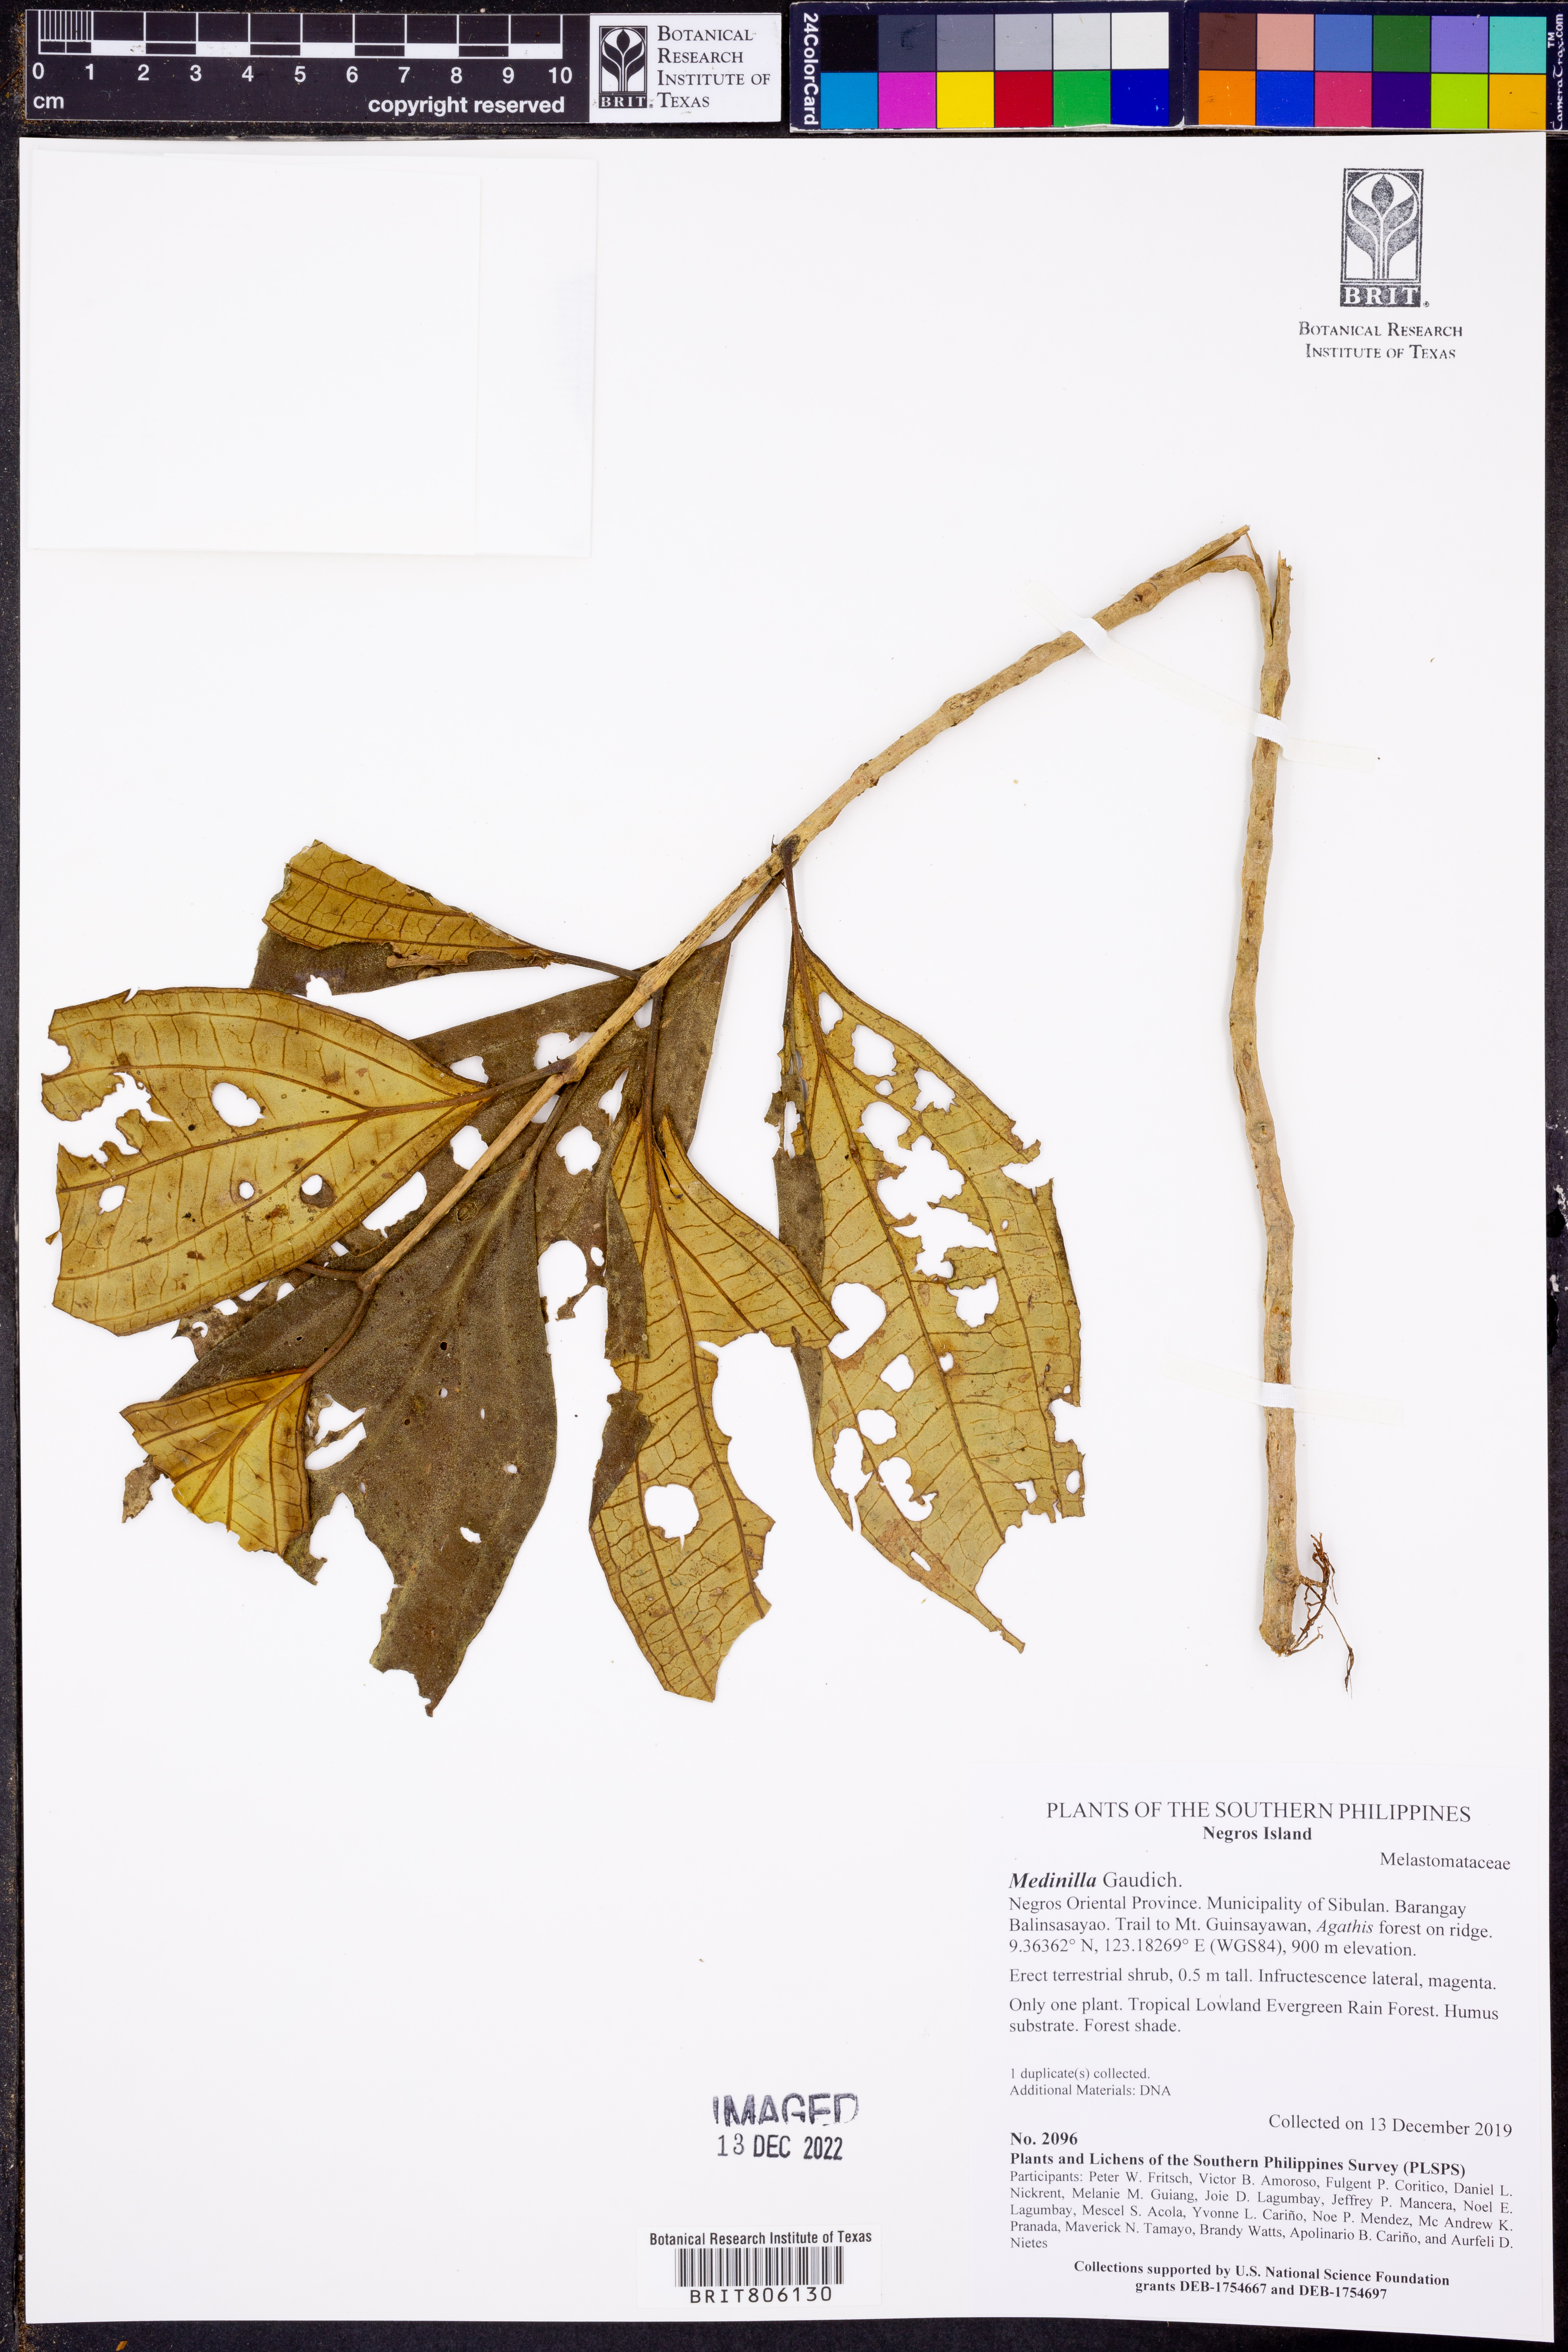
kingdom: Plantae
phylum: Tracheophyta
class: Magnoliopsida
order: Myrtales
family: Melastomataceae
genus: Medinilla
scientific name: Medinilla
